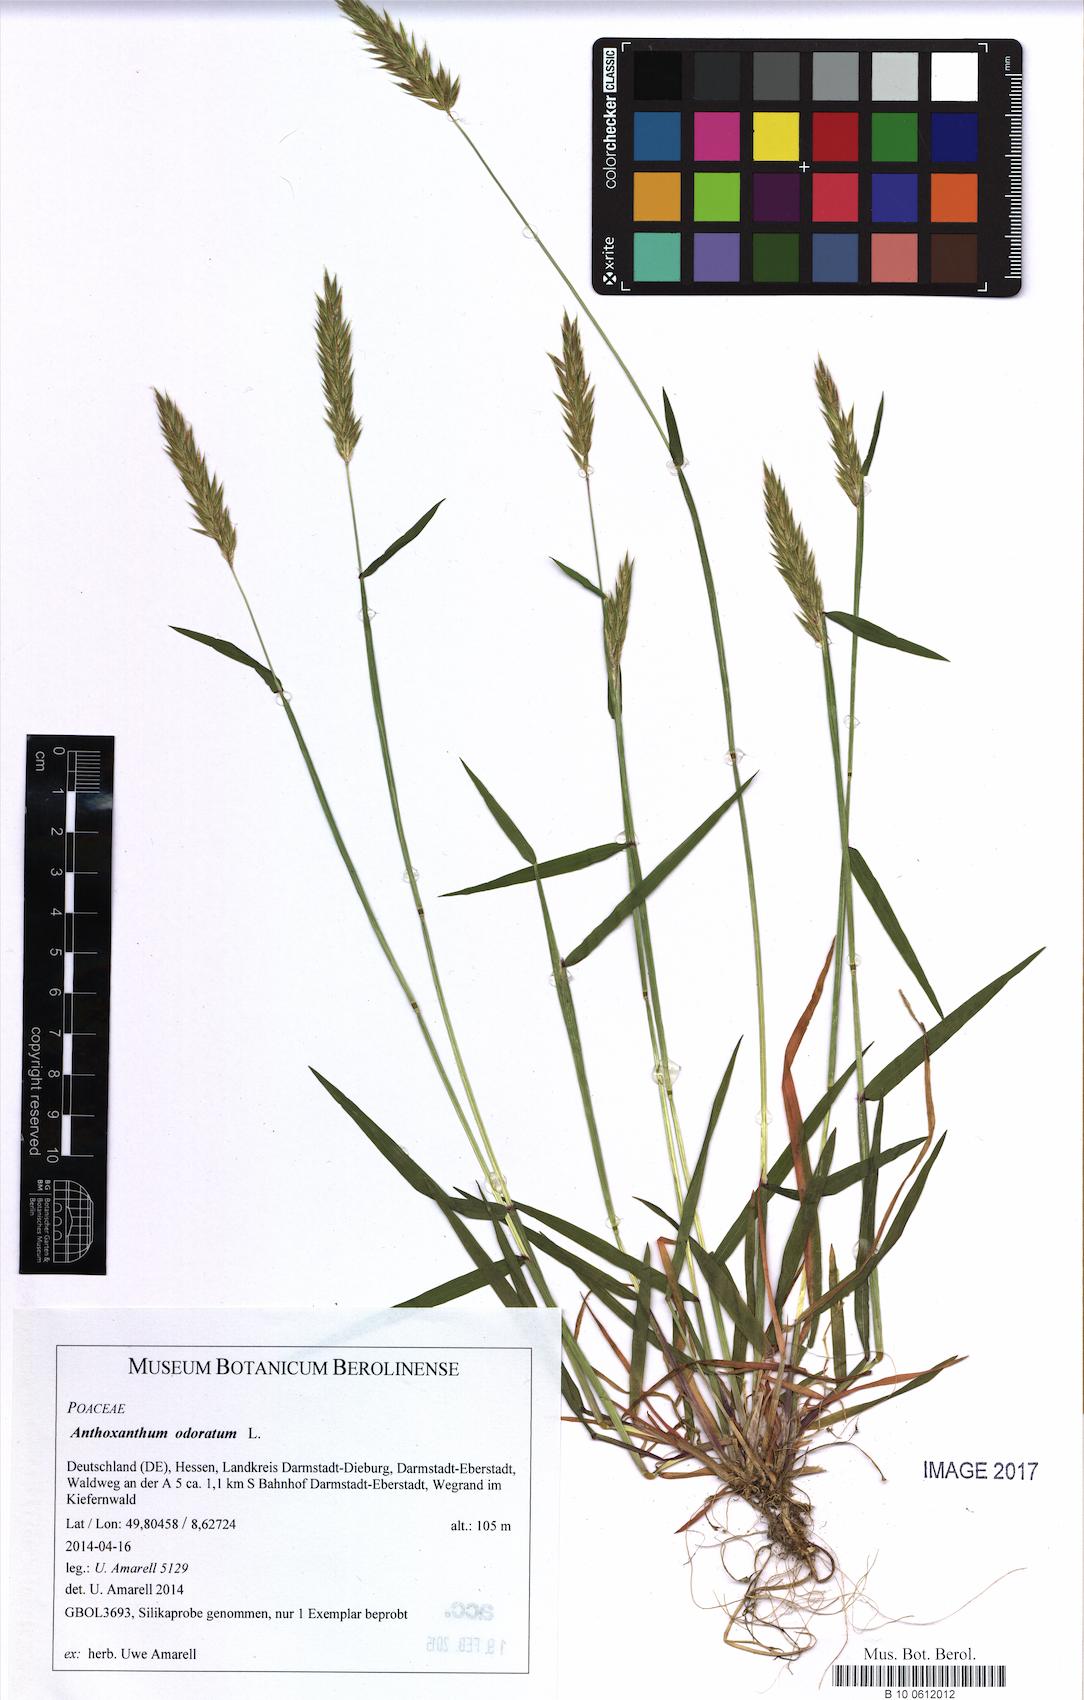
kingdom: Plantae
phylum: Tracheophyta
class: Liliopsida
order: Poales
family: Poaceae
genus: Anthoxanthum
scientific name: Anthoxanthum odoratum
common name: Sweet vernalgrass
